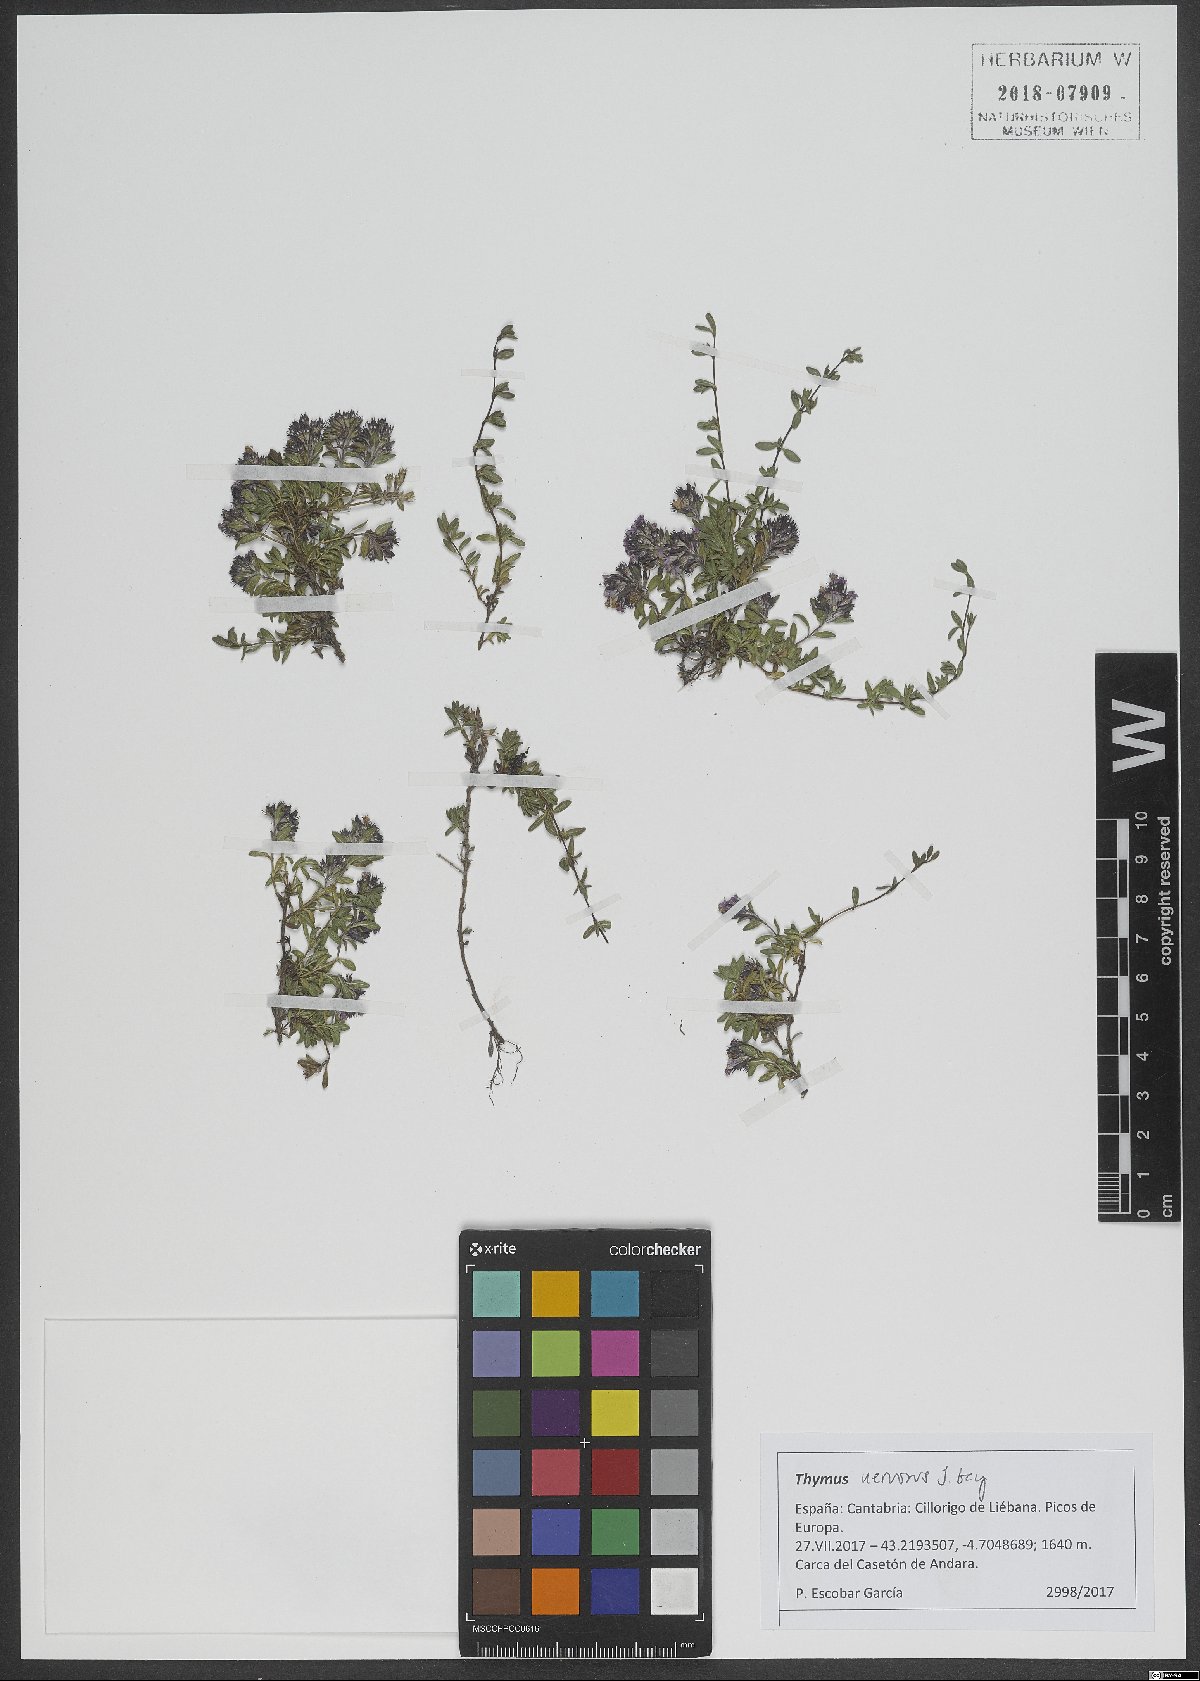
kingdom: Plantae
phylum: Tracheophyta
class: Magnoliopsida
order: Lamiales
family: Lamiaceae
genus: Thymus
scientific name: Thymus nervosus
